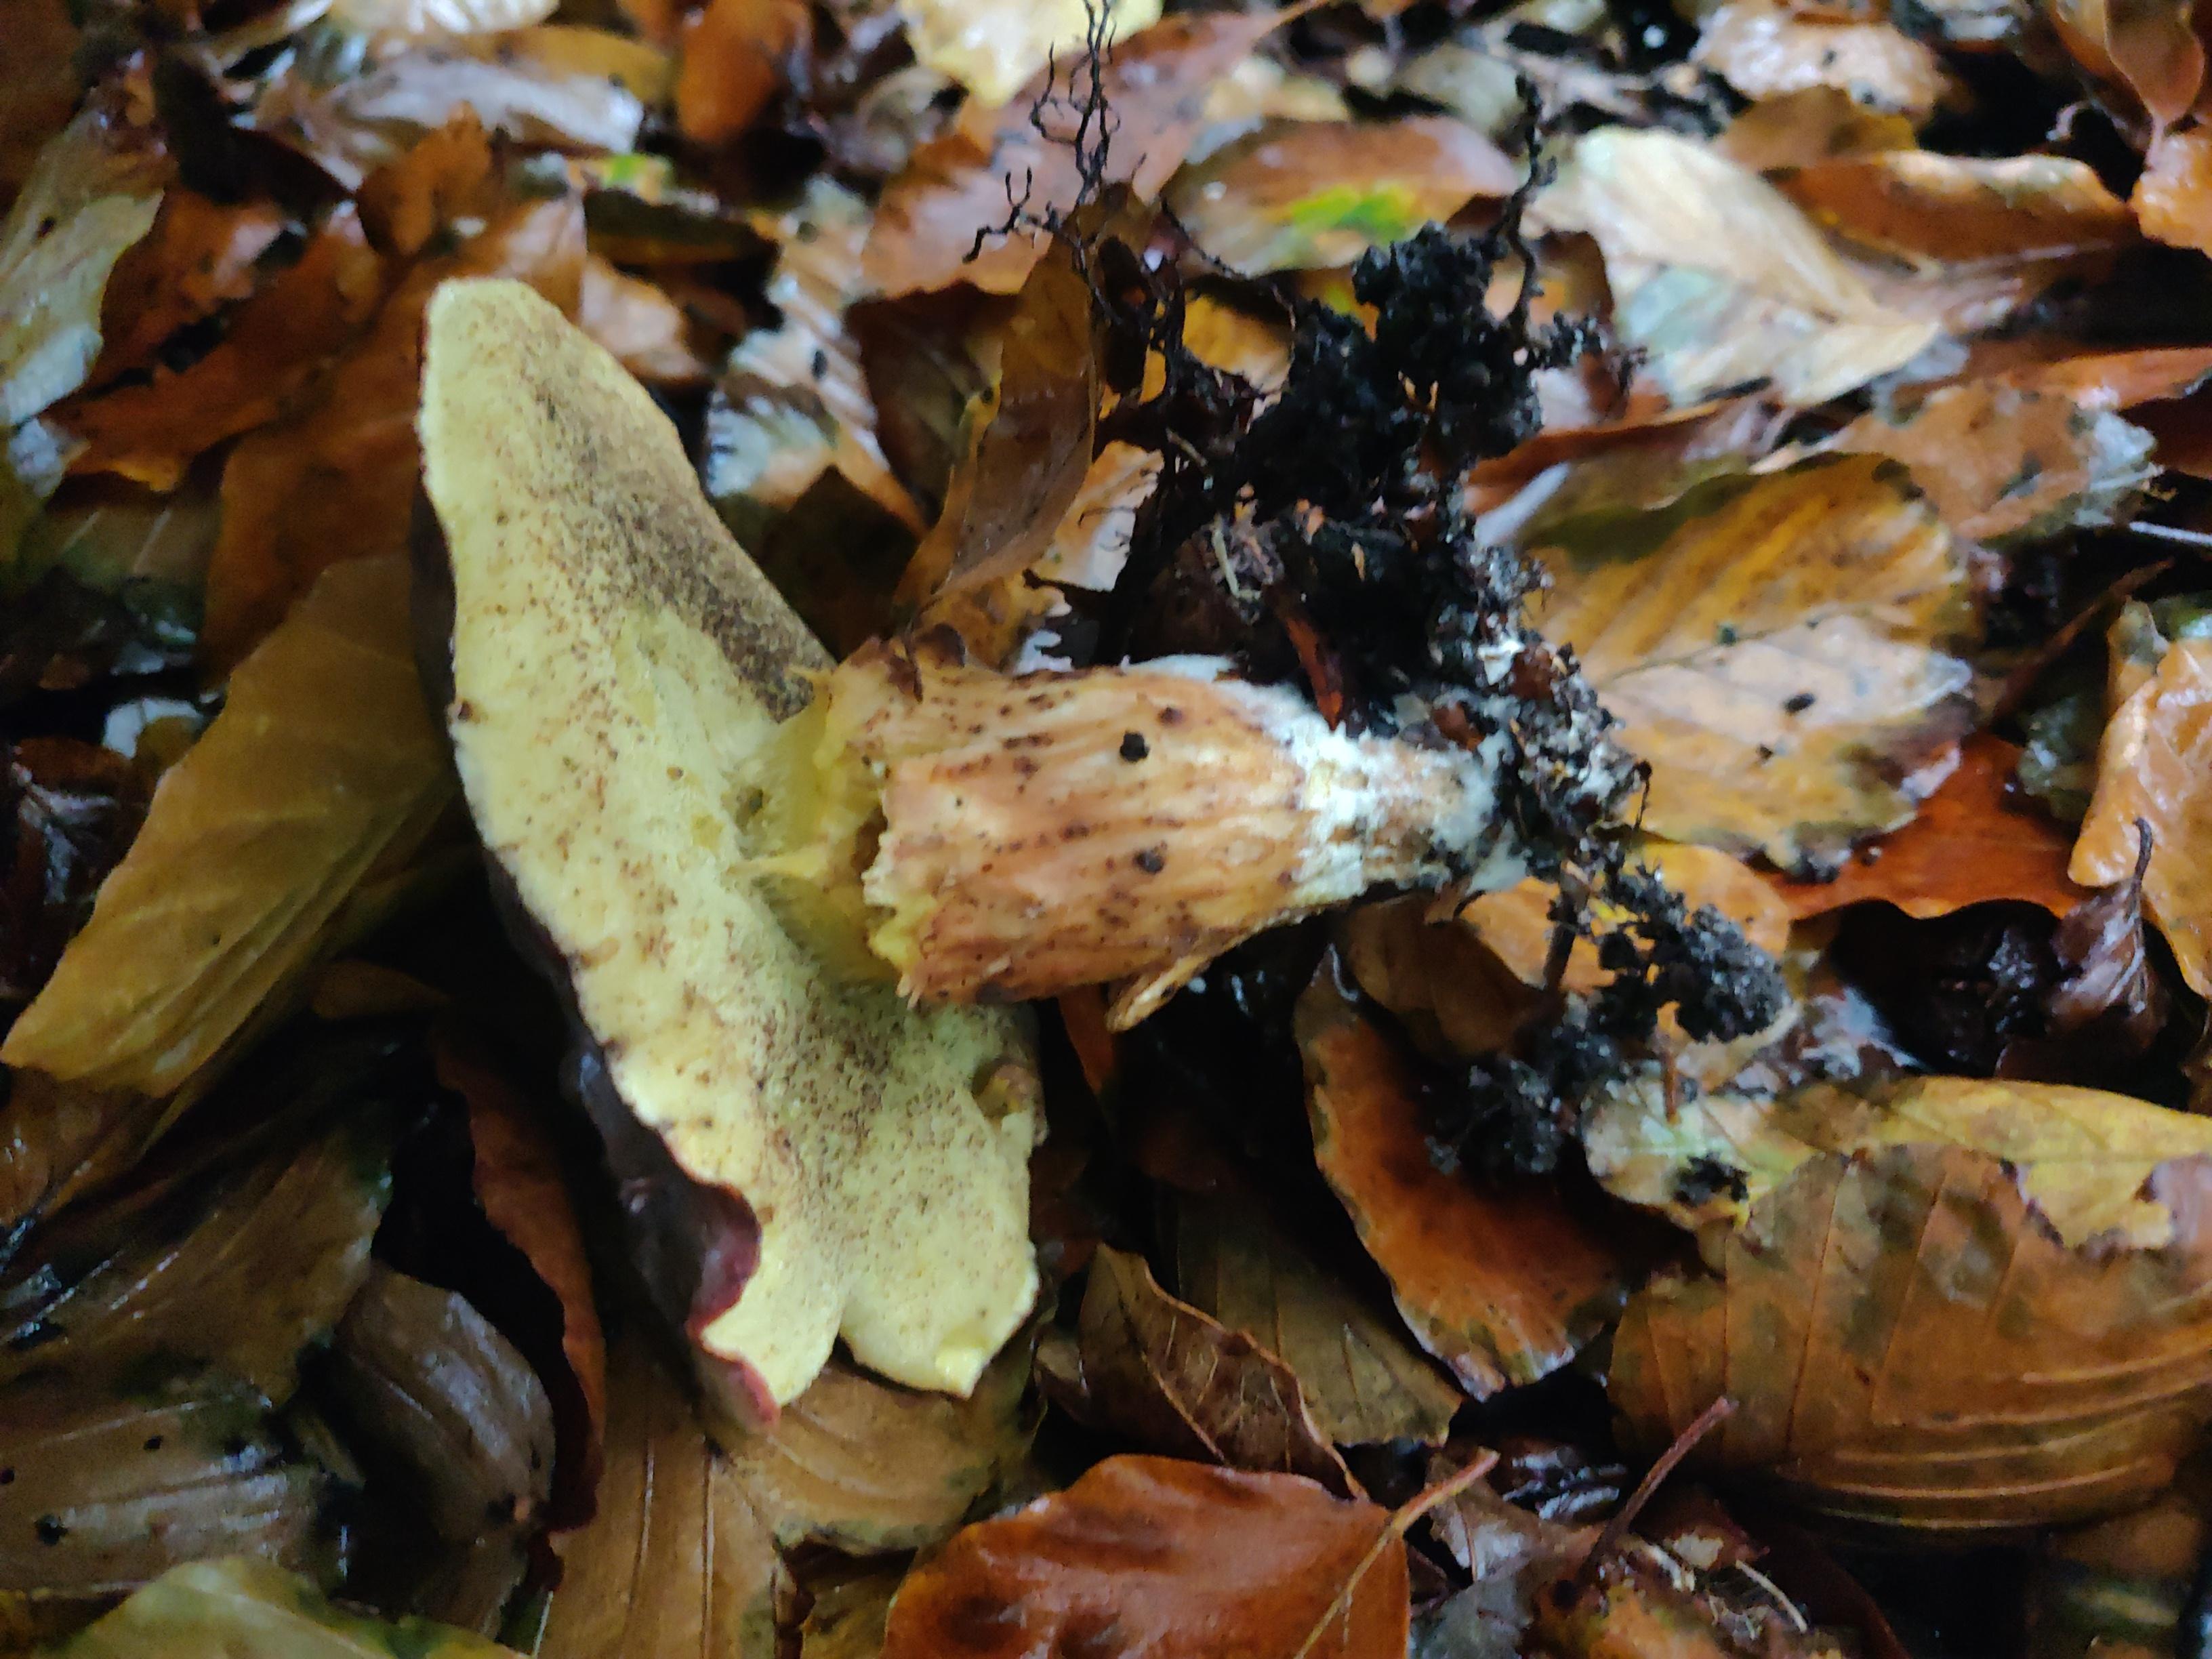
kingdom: Fungi
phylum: Basidiomycota
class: Agaricomycetes
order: Boletales
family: Boletaceae
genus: Xerocomellus
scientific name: Xerocomellus pruinatus
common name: dugget rørhat
